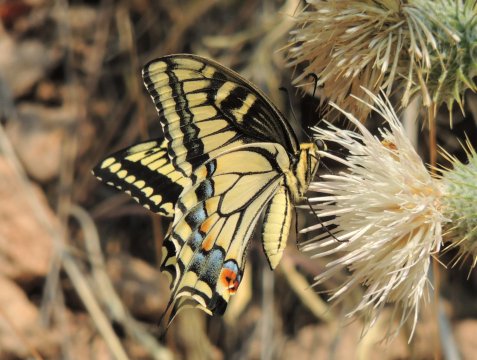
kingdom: Animalia
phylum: Arthropoda
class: Insecta
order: Lepidoptera
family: Papilionidae
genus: Papilio
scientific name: Papilio machaon
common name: Old World Swallowtail
